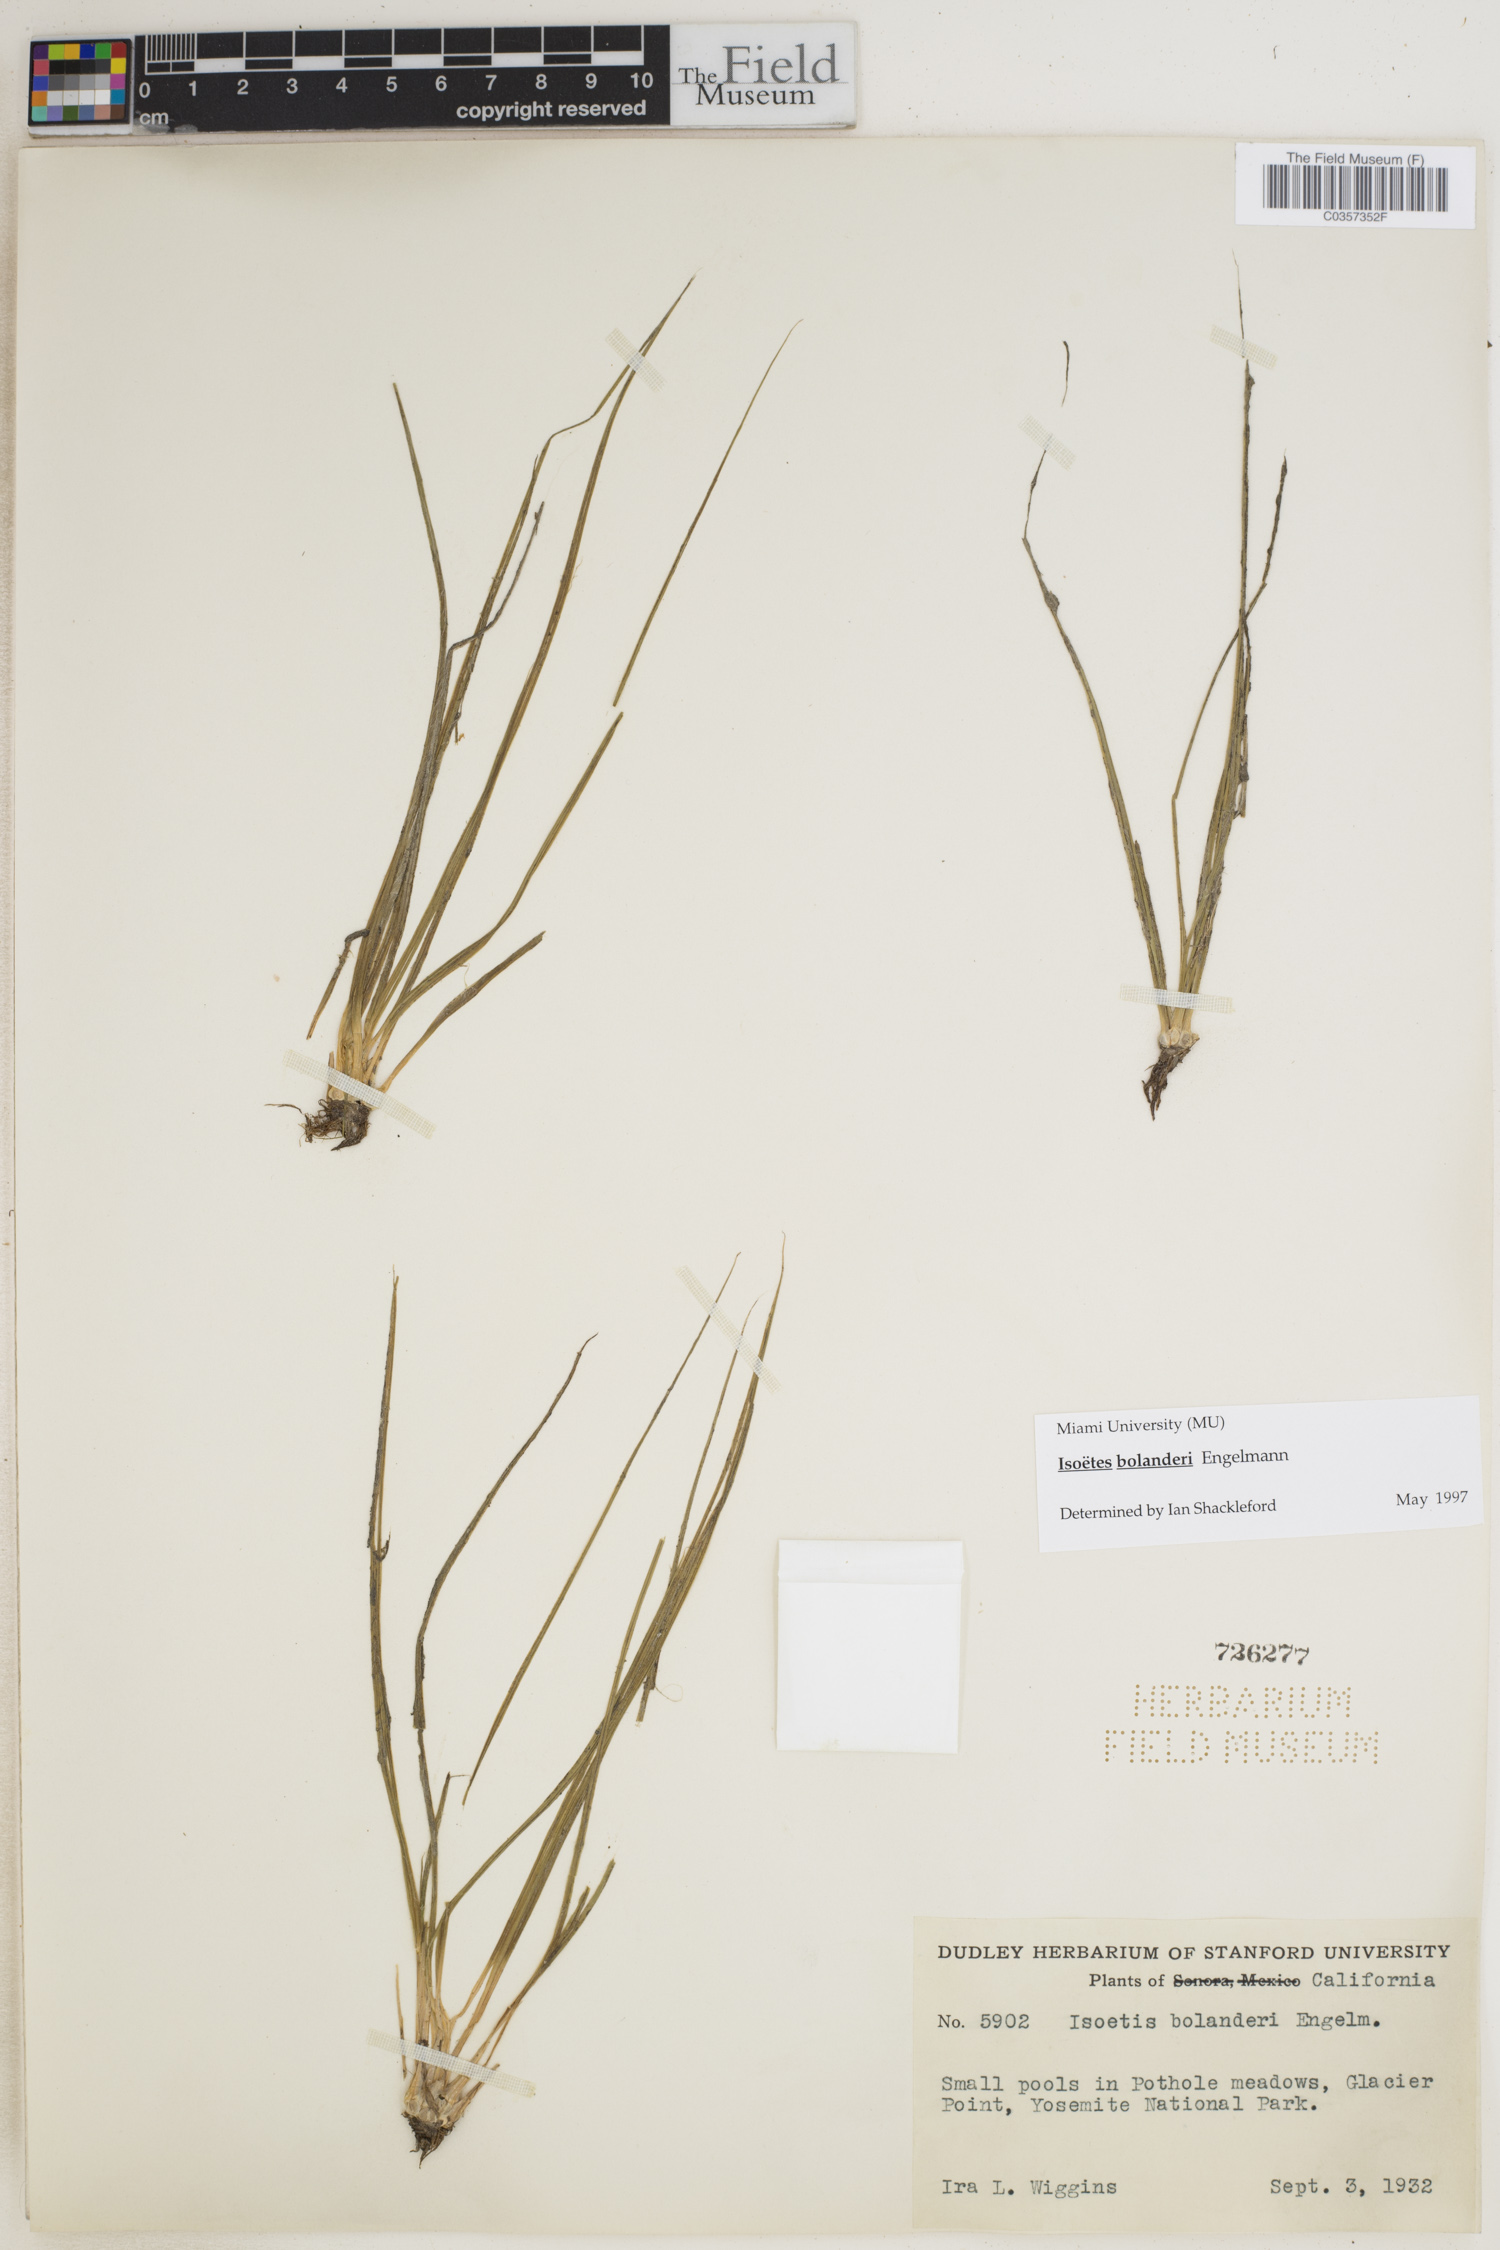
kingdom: Plantae
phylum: Tracheophyta
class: Lycopodiopsida
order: Isoetales
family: Isoetaceae
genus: Isoetes
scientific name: Isoetes bolanderi
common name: Bolander's quillwort
